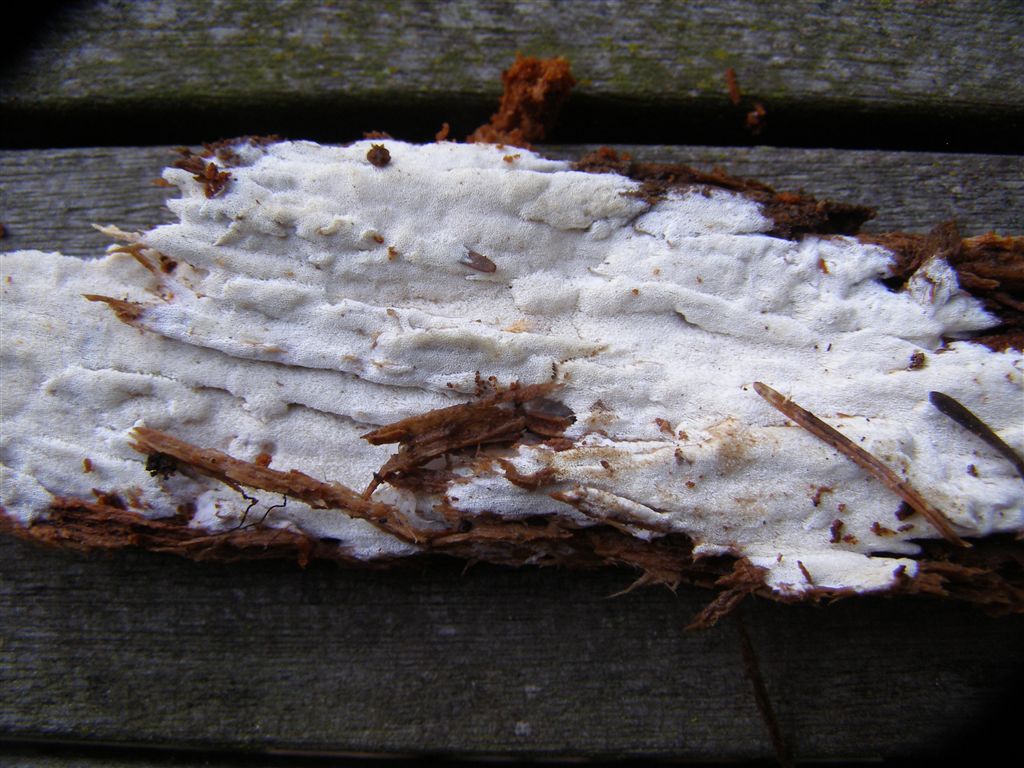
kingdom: Fungi
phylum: Basidiomycota
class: Agaricomycetes
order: Hymenochaetales
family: Rickenellaceae
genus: Sidera
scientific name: Sidera vulgaris
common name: fin flødeporesvamp
